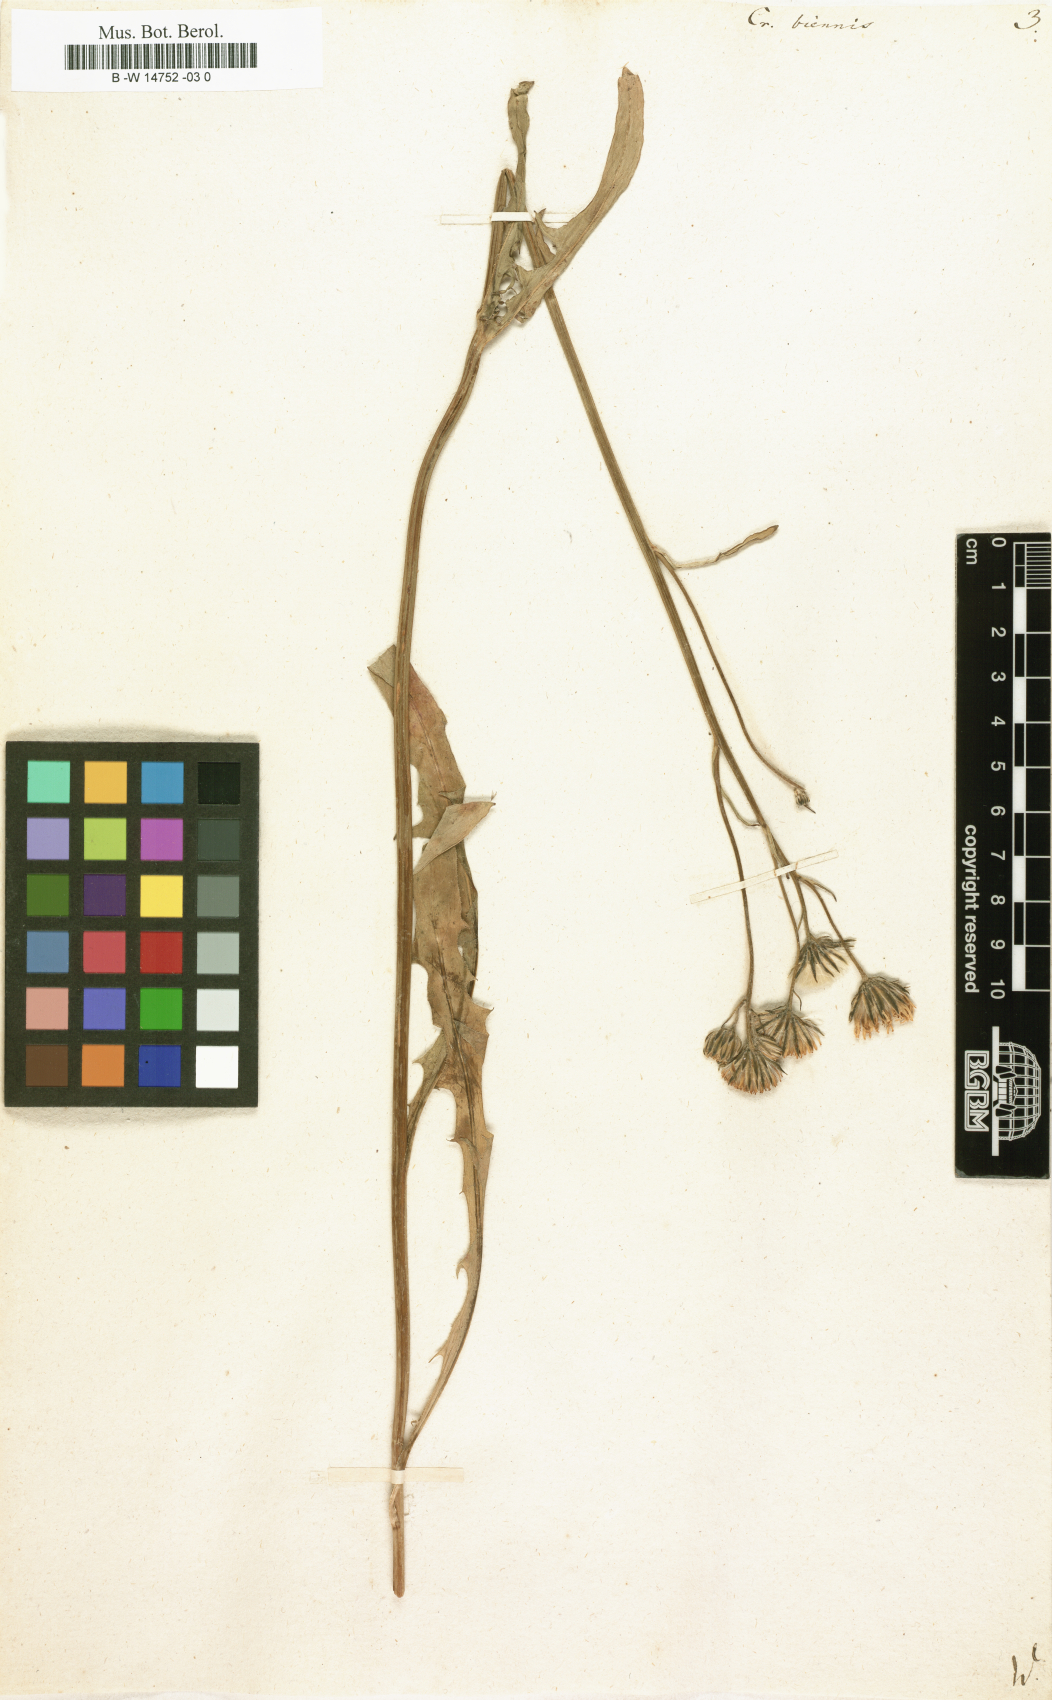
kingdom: Plantae
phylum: Tracheophyta
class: Magnoliopsida
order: Asterales
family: Asteraceae
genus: Crepis
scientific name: Crepis biennis
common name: Rough hawk's-beard
